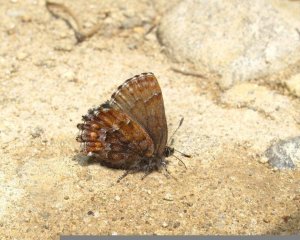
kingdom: Animalia
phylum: Arthropoda
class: Insecta
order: Lepidoptera
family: Lycaenidae
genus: Incisalia
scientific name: Incisalia niphon
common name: Eastern Pine Elfin
